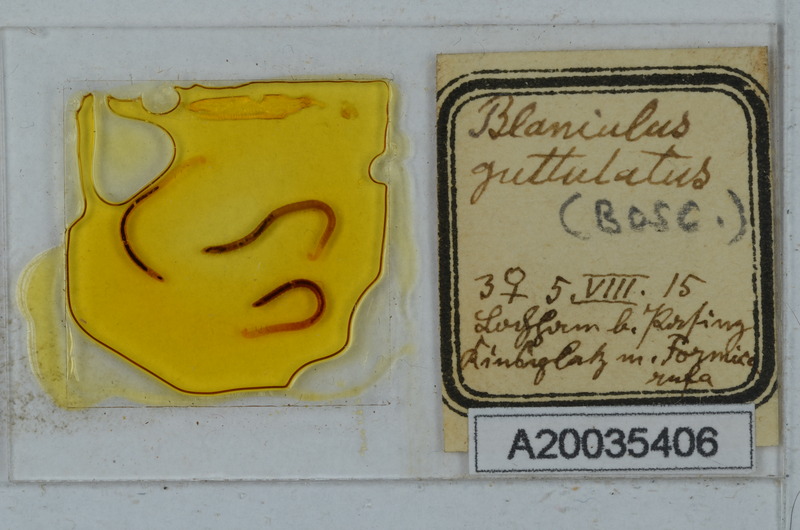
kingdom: Animalia
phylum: Arthropoda
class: Diplopoda
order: Julida
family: Blaniulidae
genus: Blaniulus
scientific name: Blaniulus guttulatus
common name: Spotted snake millipede
